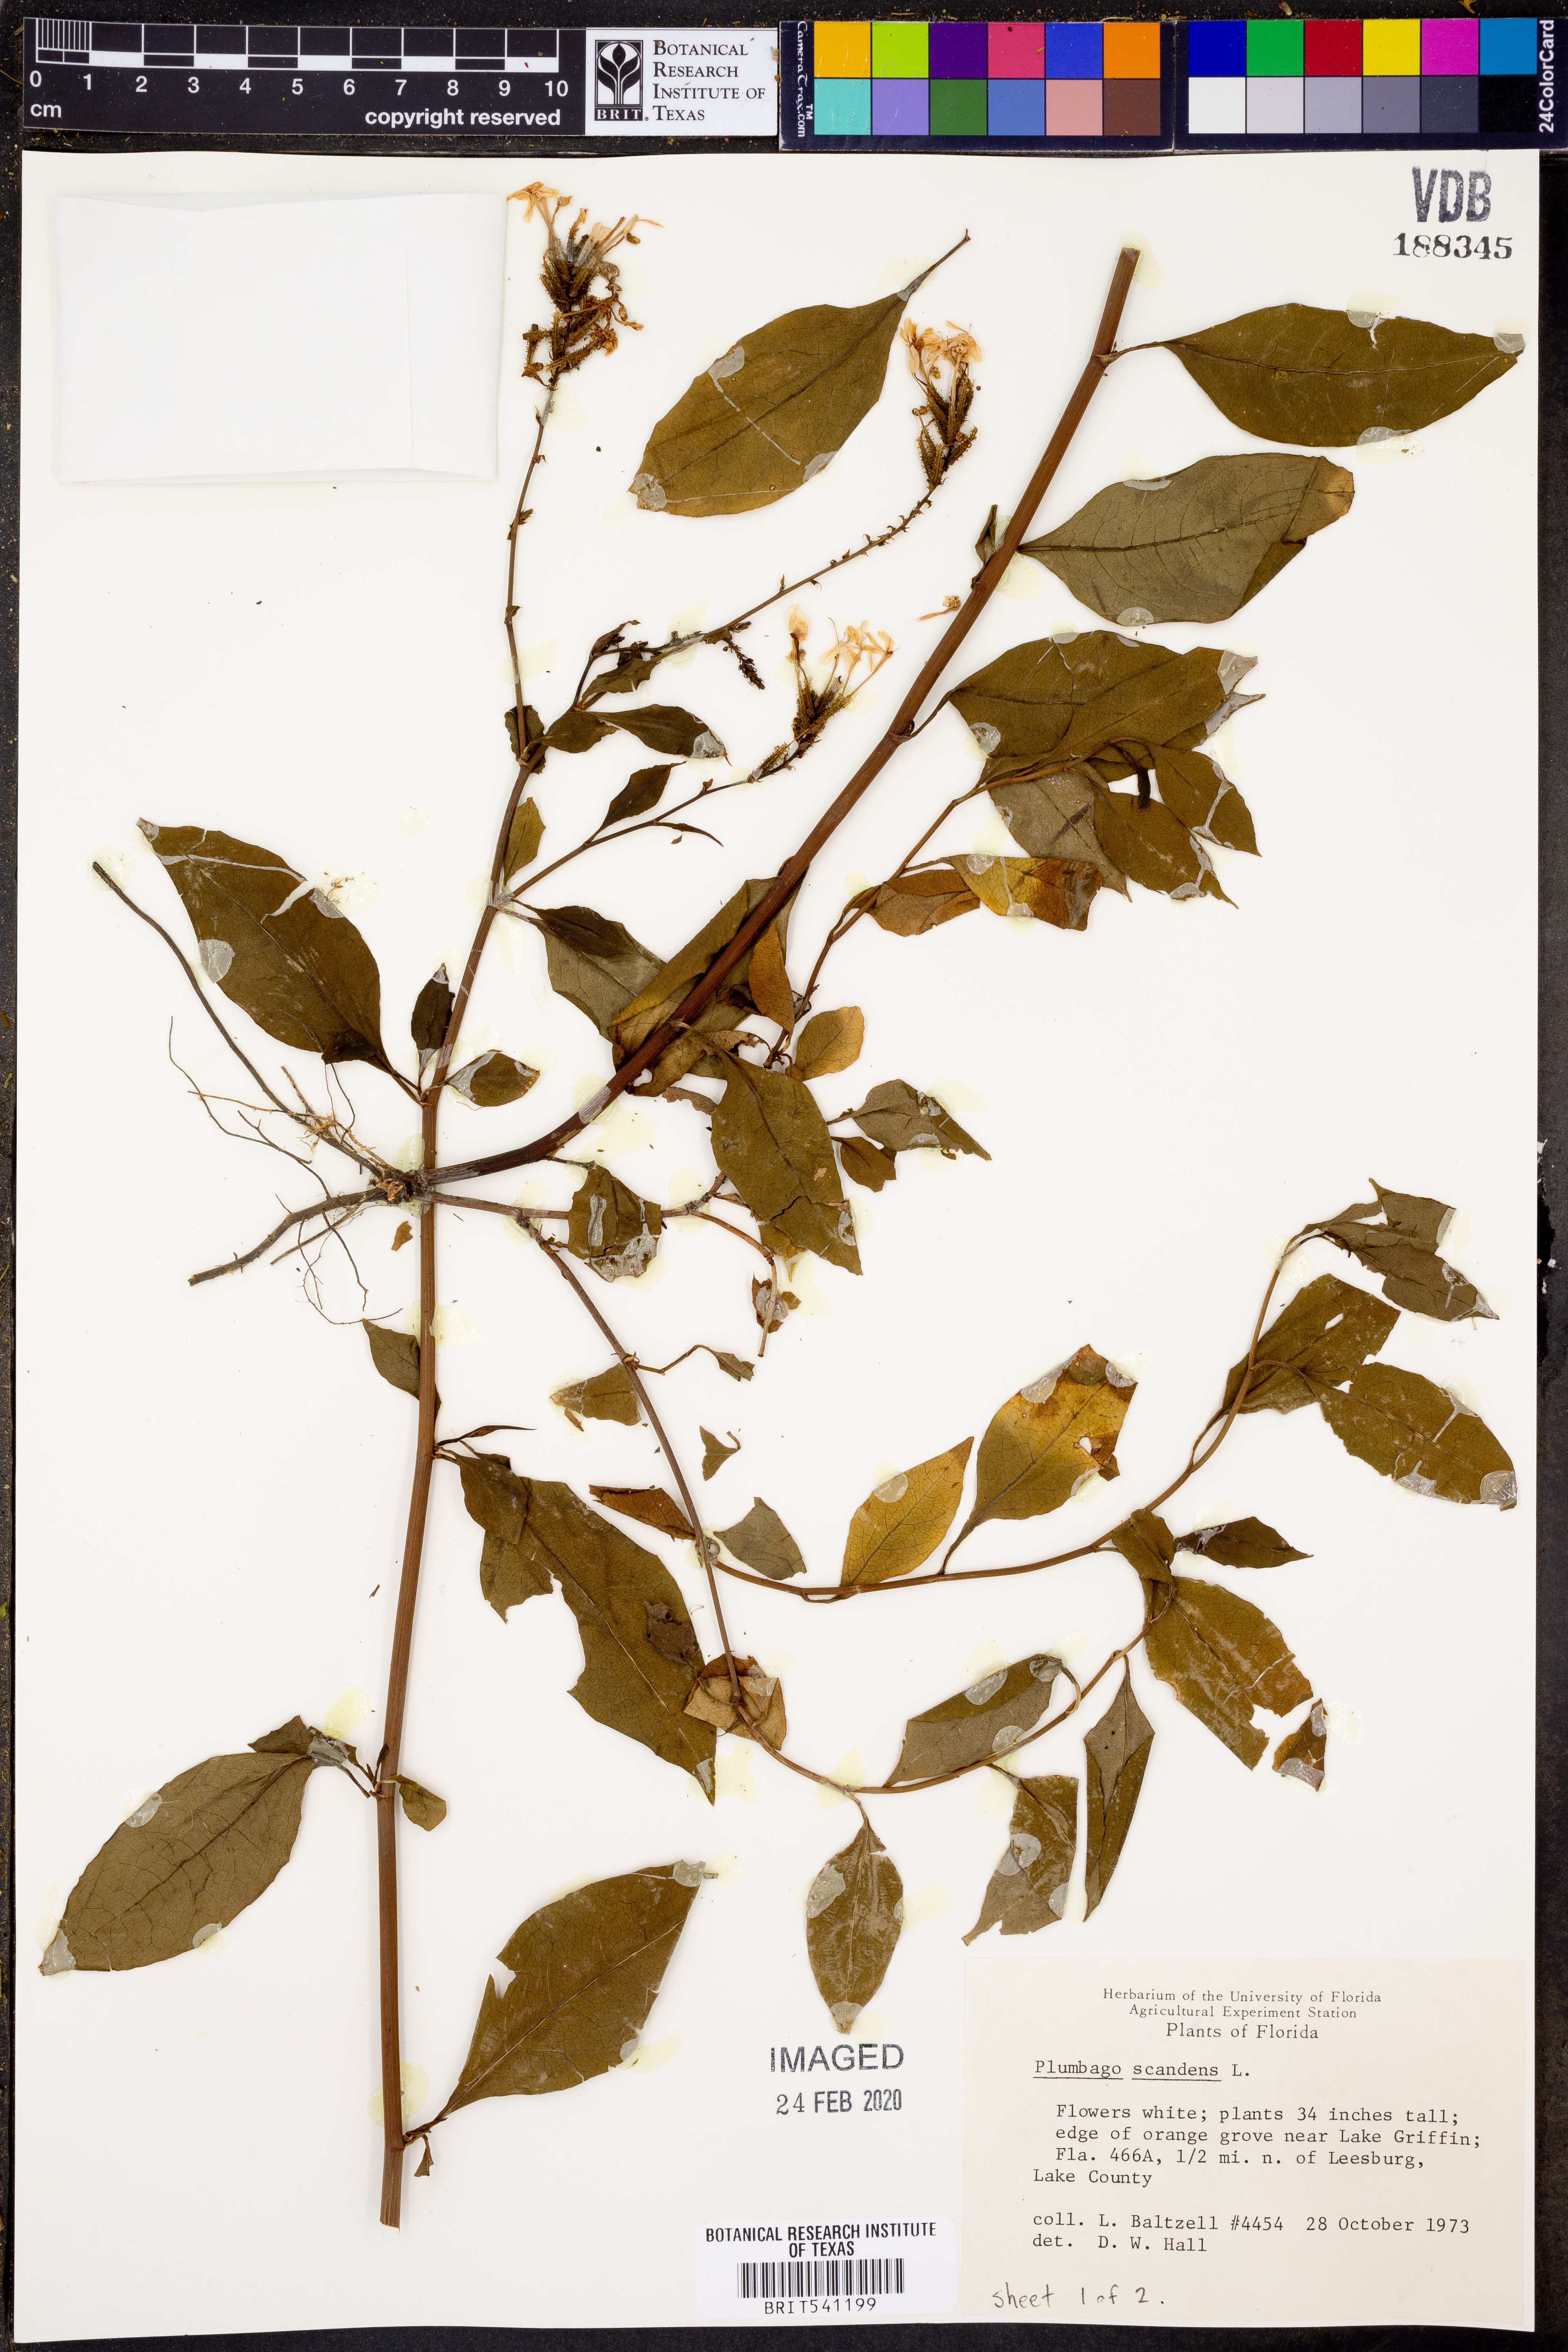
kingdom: Plantae
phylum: Tracheophyta
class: Magnoliopsida
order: Caryophyllales
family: Plumbaginaceae
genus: Plumbago
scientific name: Plumbago zeylanica
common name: Doctorbush
